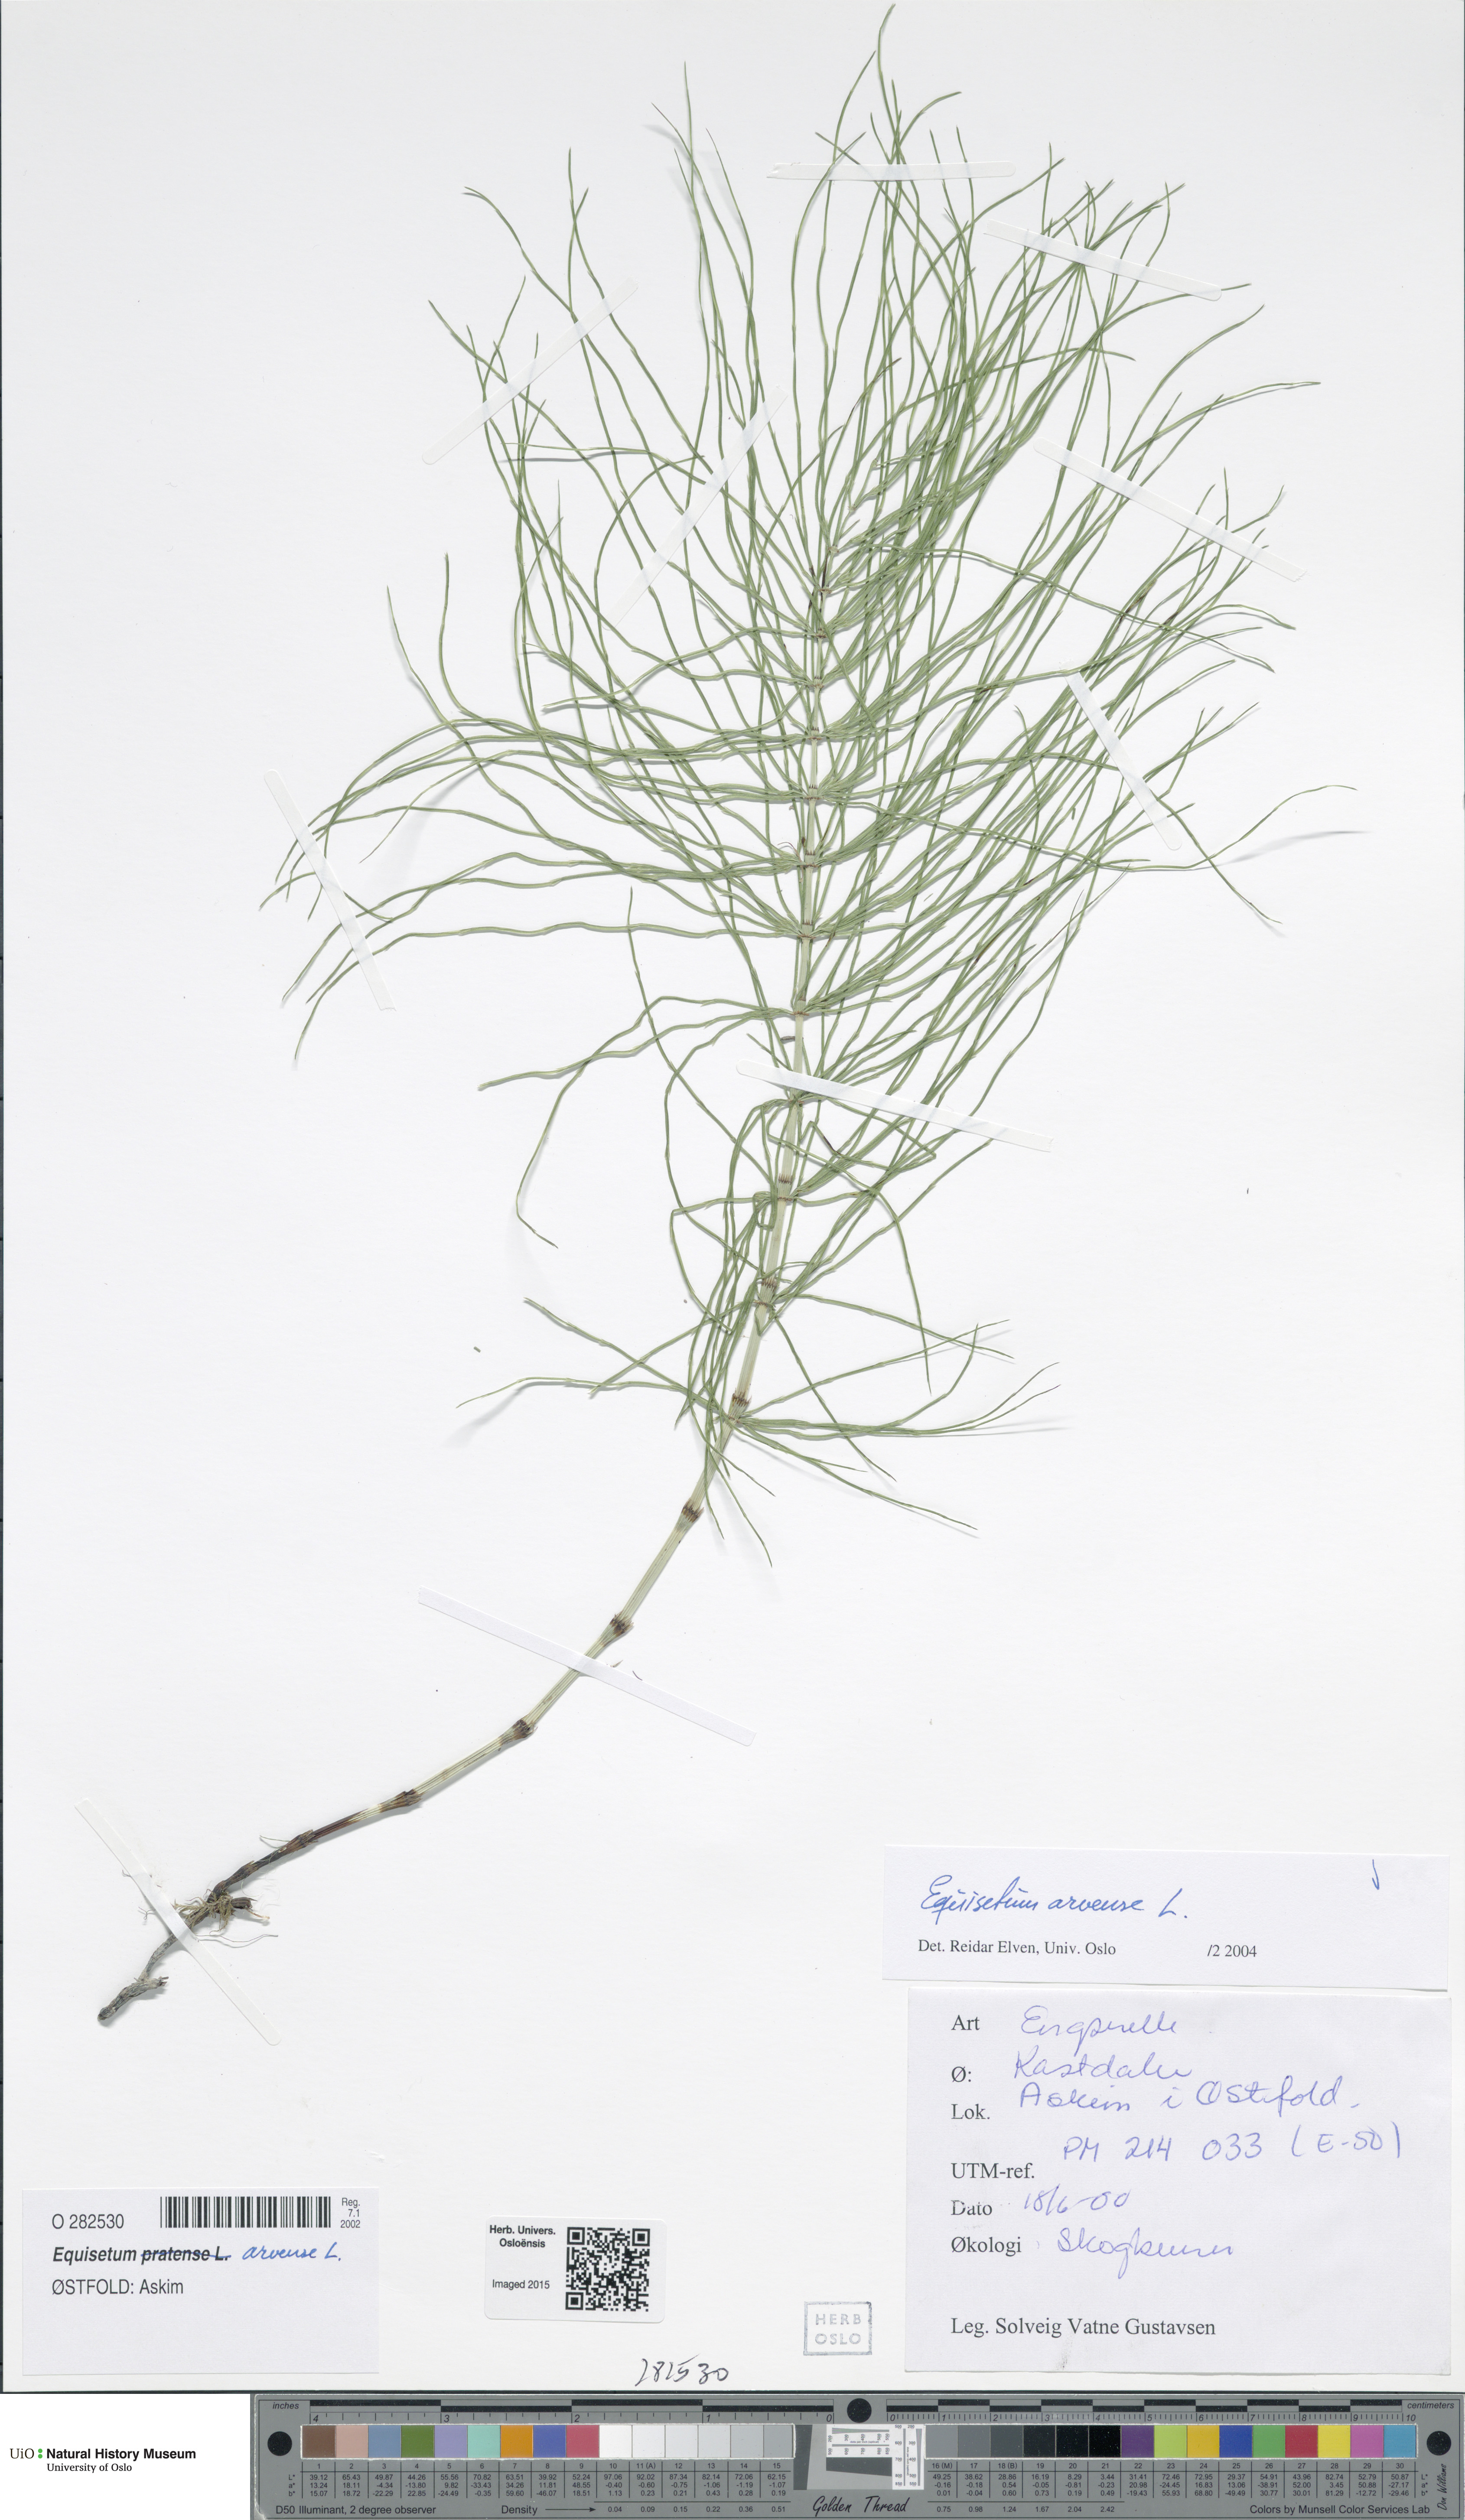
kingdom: Plantae
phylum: Tracheophyta
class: Polypodiopsida
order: Equisetales
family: Equisetaceae
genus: Equisetum
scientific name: Equisetum arvense
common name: Field horsetail
